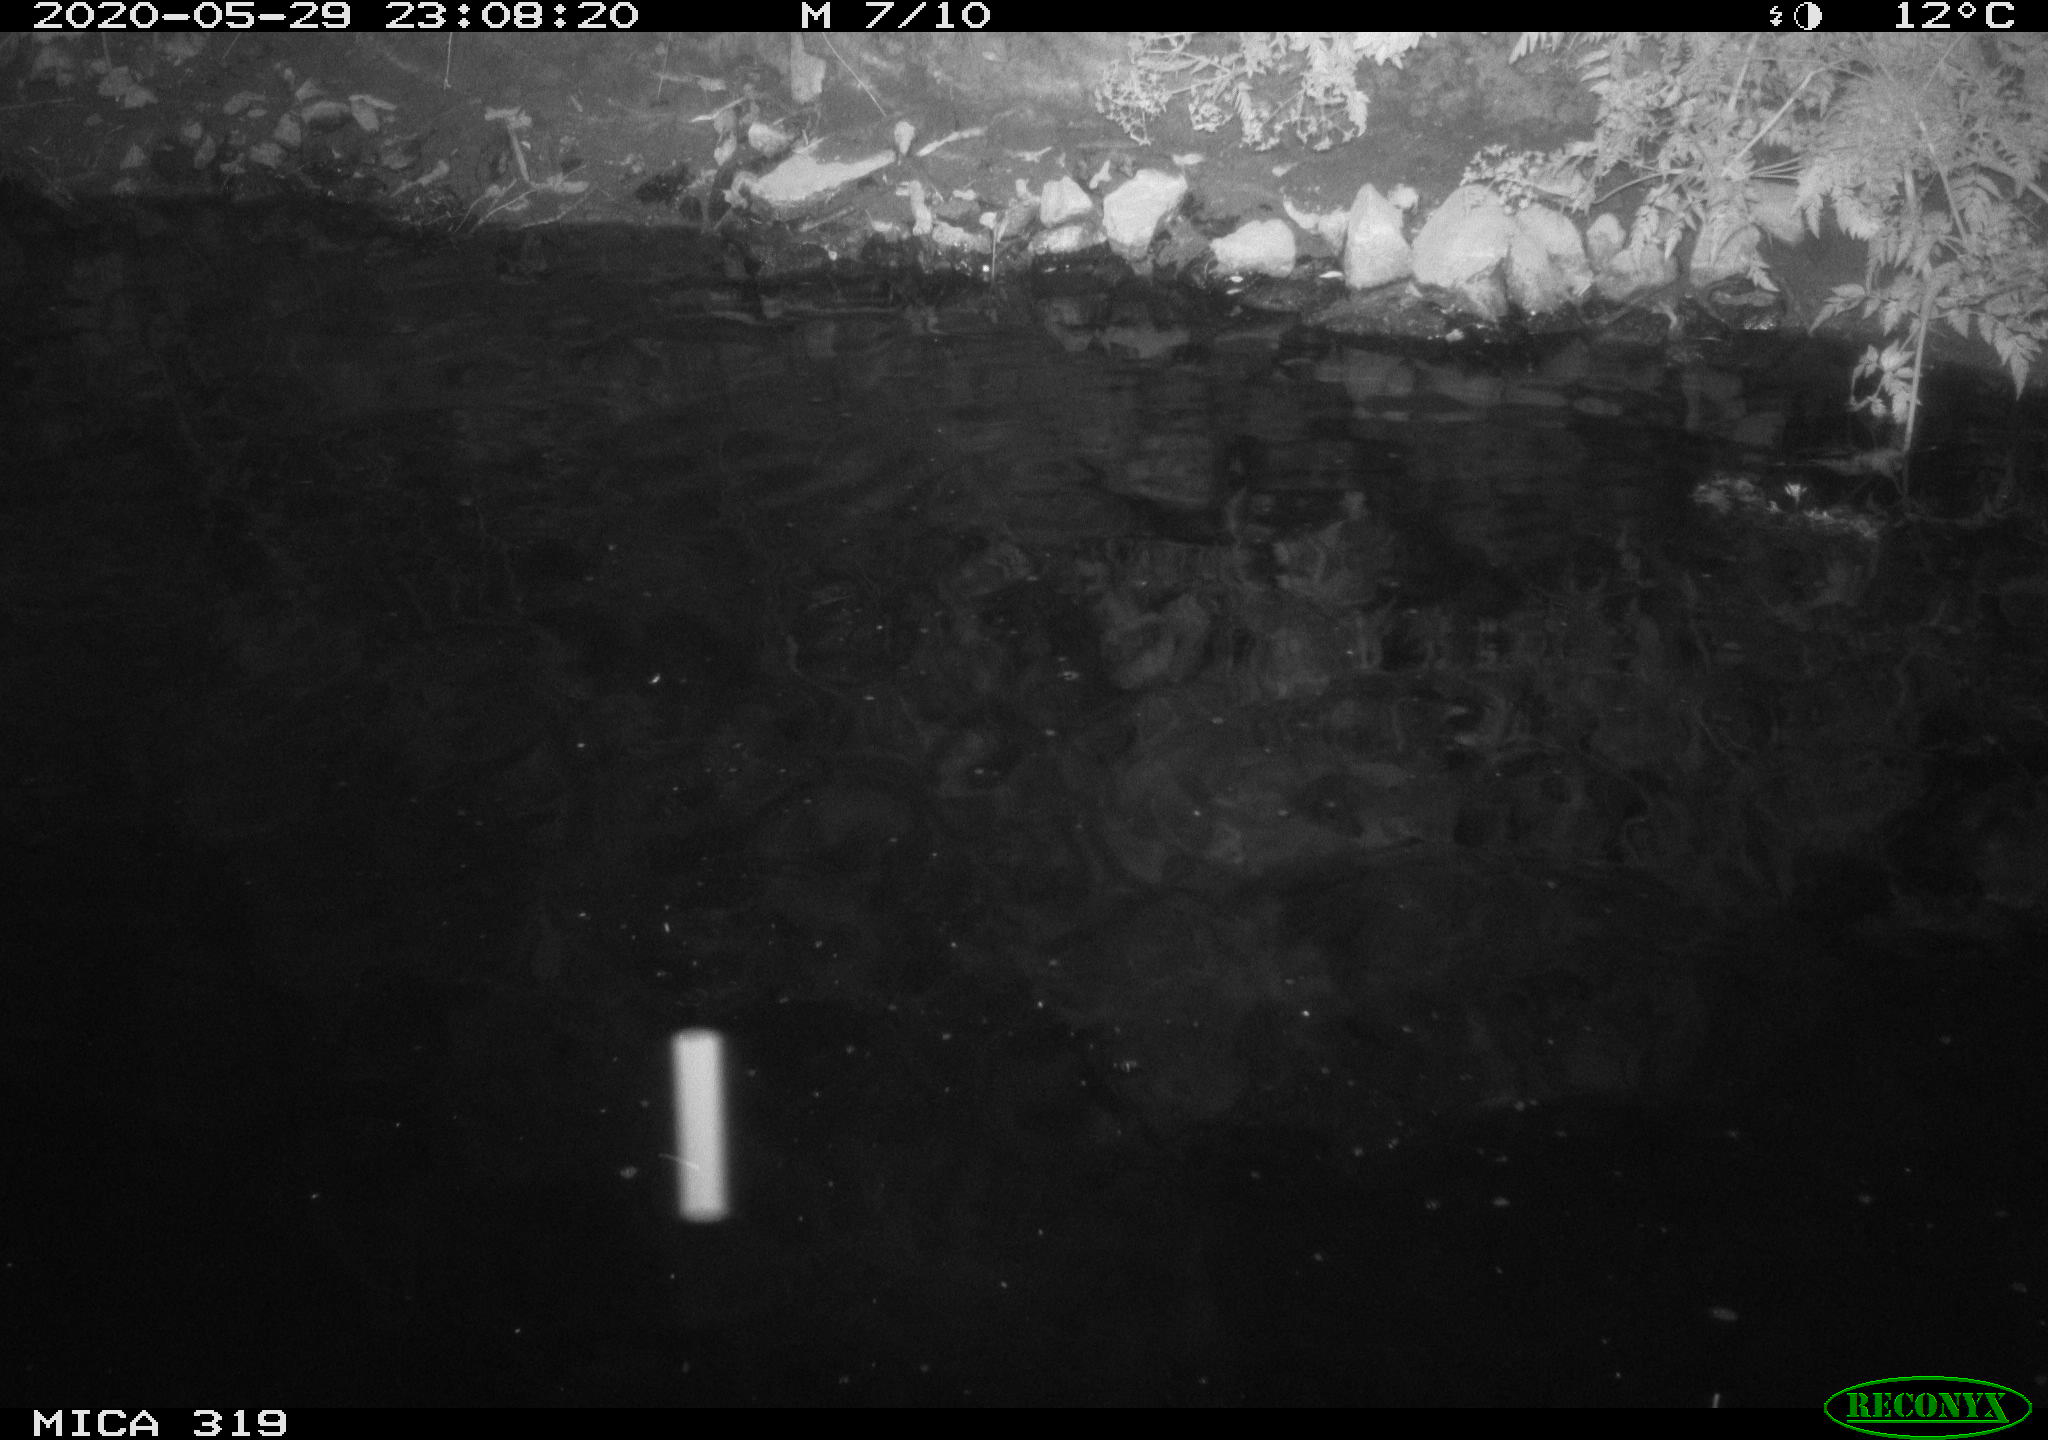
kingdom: Animalia
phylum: Chordata
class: Aves
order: Anseriformes
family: Anatidae
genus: Anas
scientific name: Anas platyrhynchos
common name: Mallard
